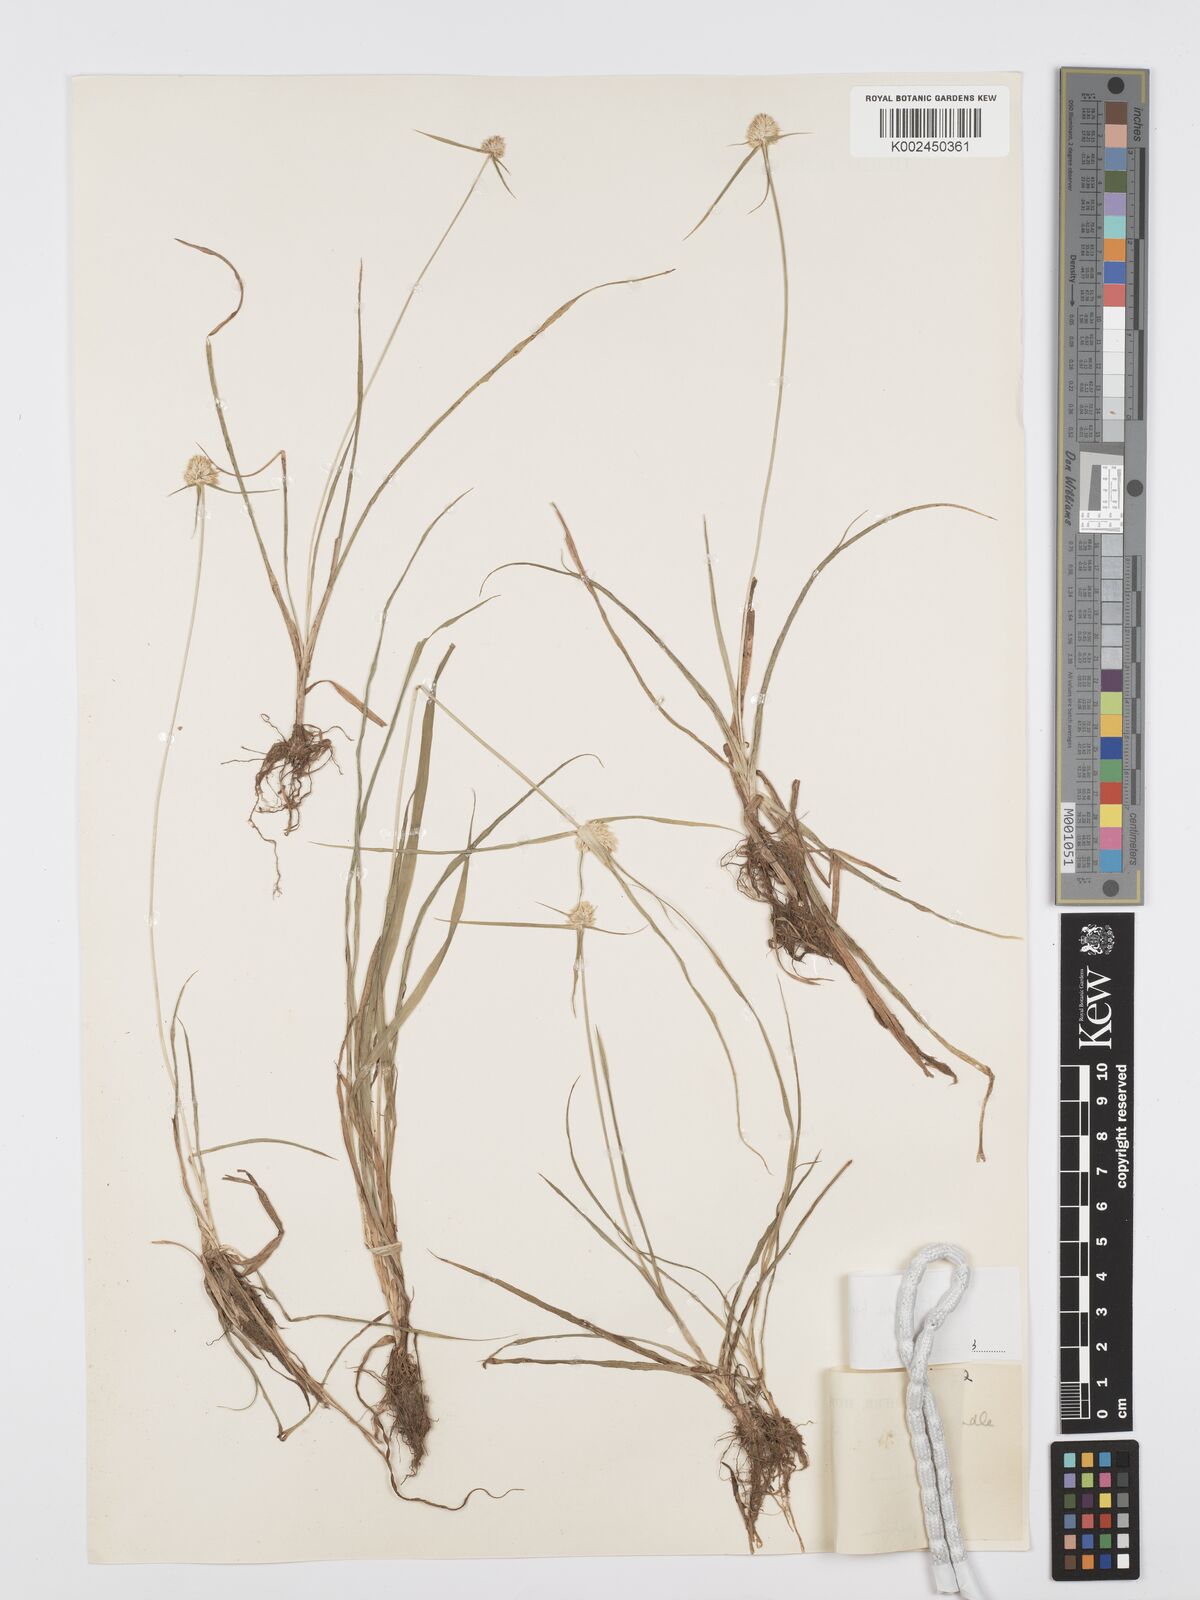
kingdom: Plantae
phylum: Tracheophyta
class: Liliopsida
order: Poales
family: Cyperaceae
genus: Cyperus
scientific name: Cyperus
